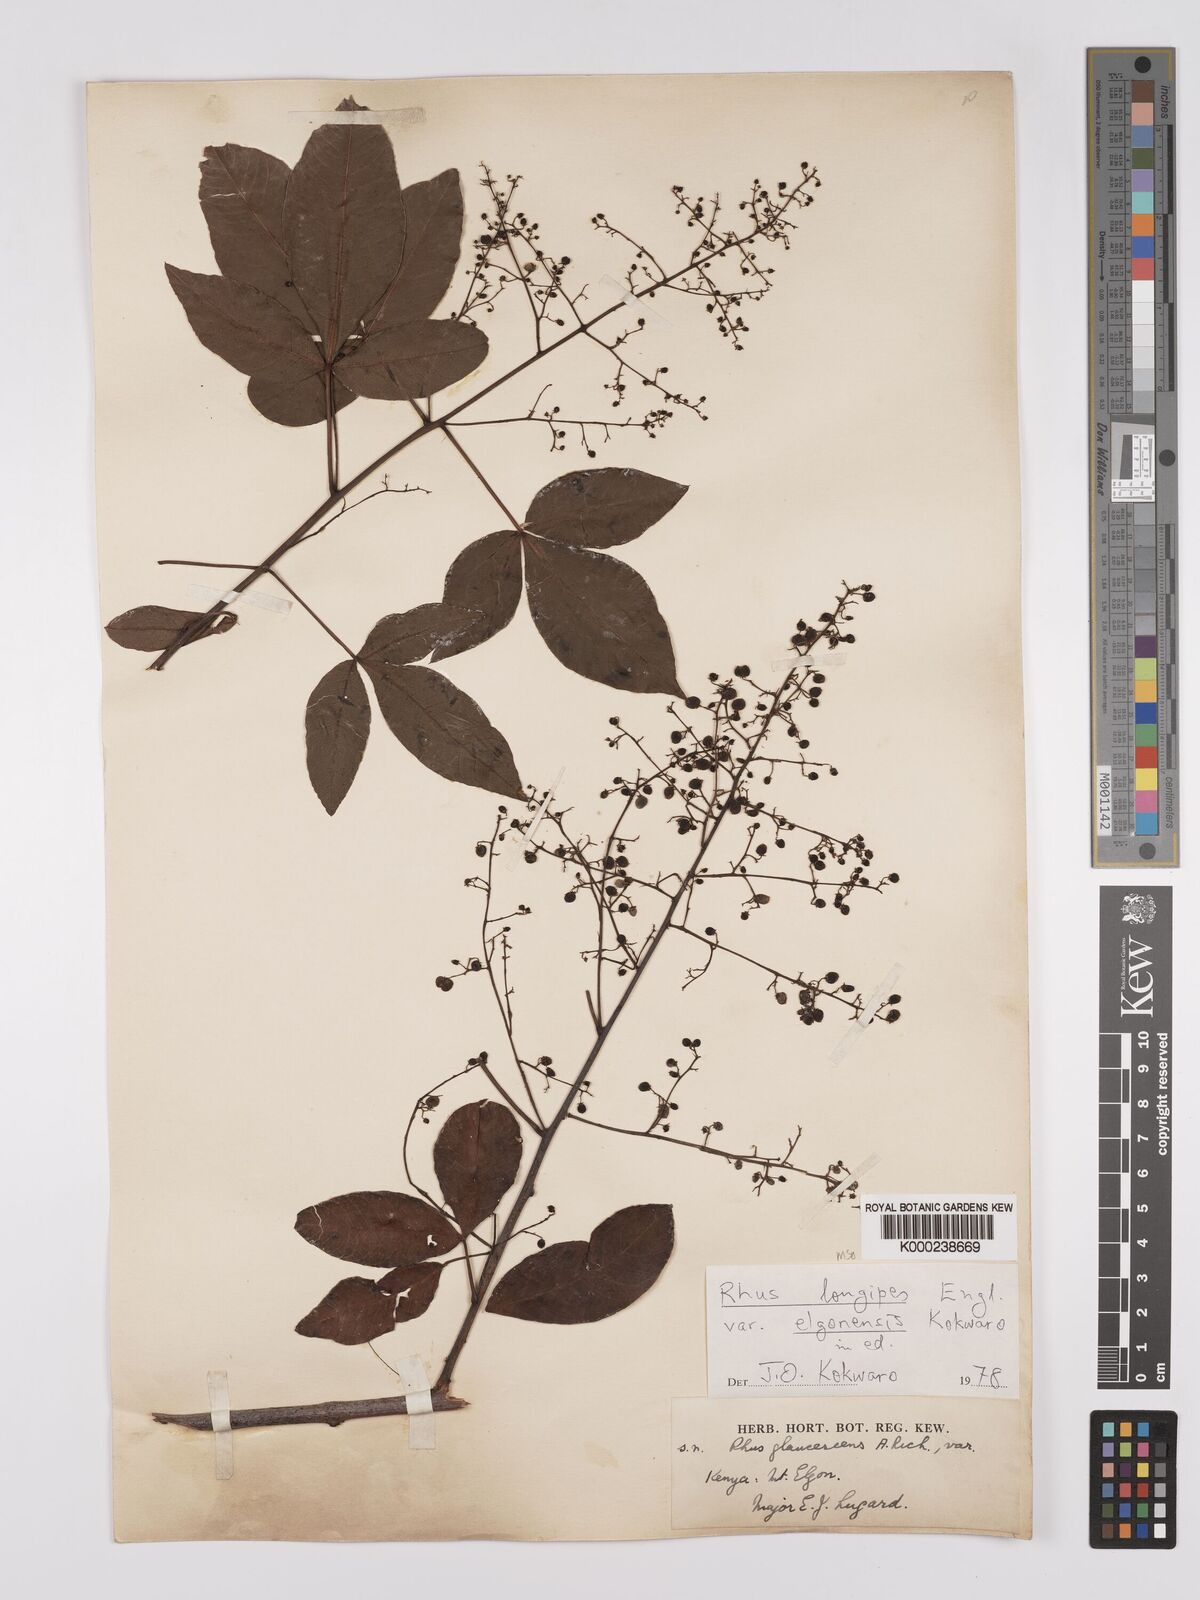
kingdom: Plantae
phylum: Tracheophyta
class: Magnoliopsida
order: Sapindales
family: Anacardiaceae
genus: Searsia
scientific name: Searsia longipes
